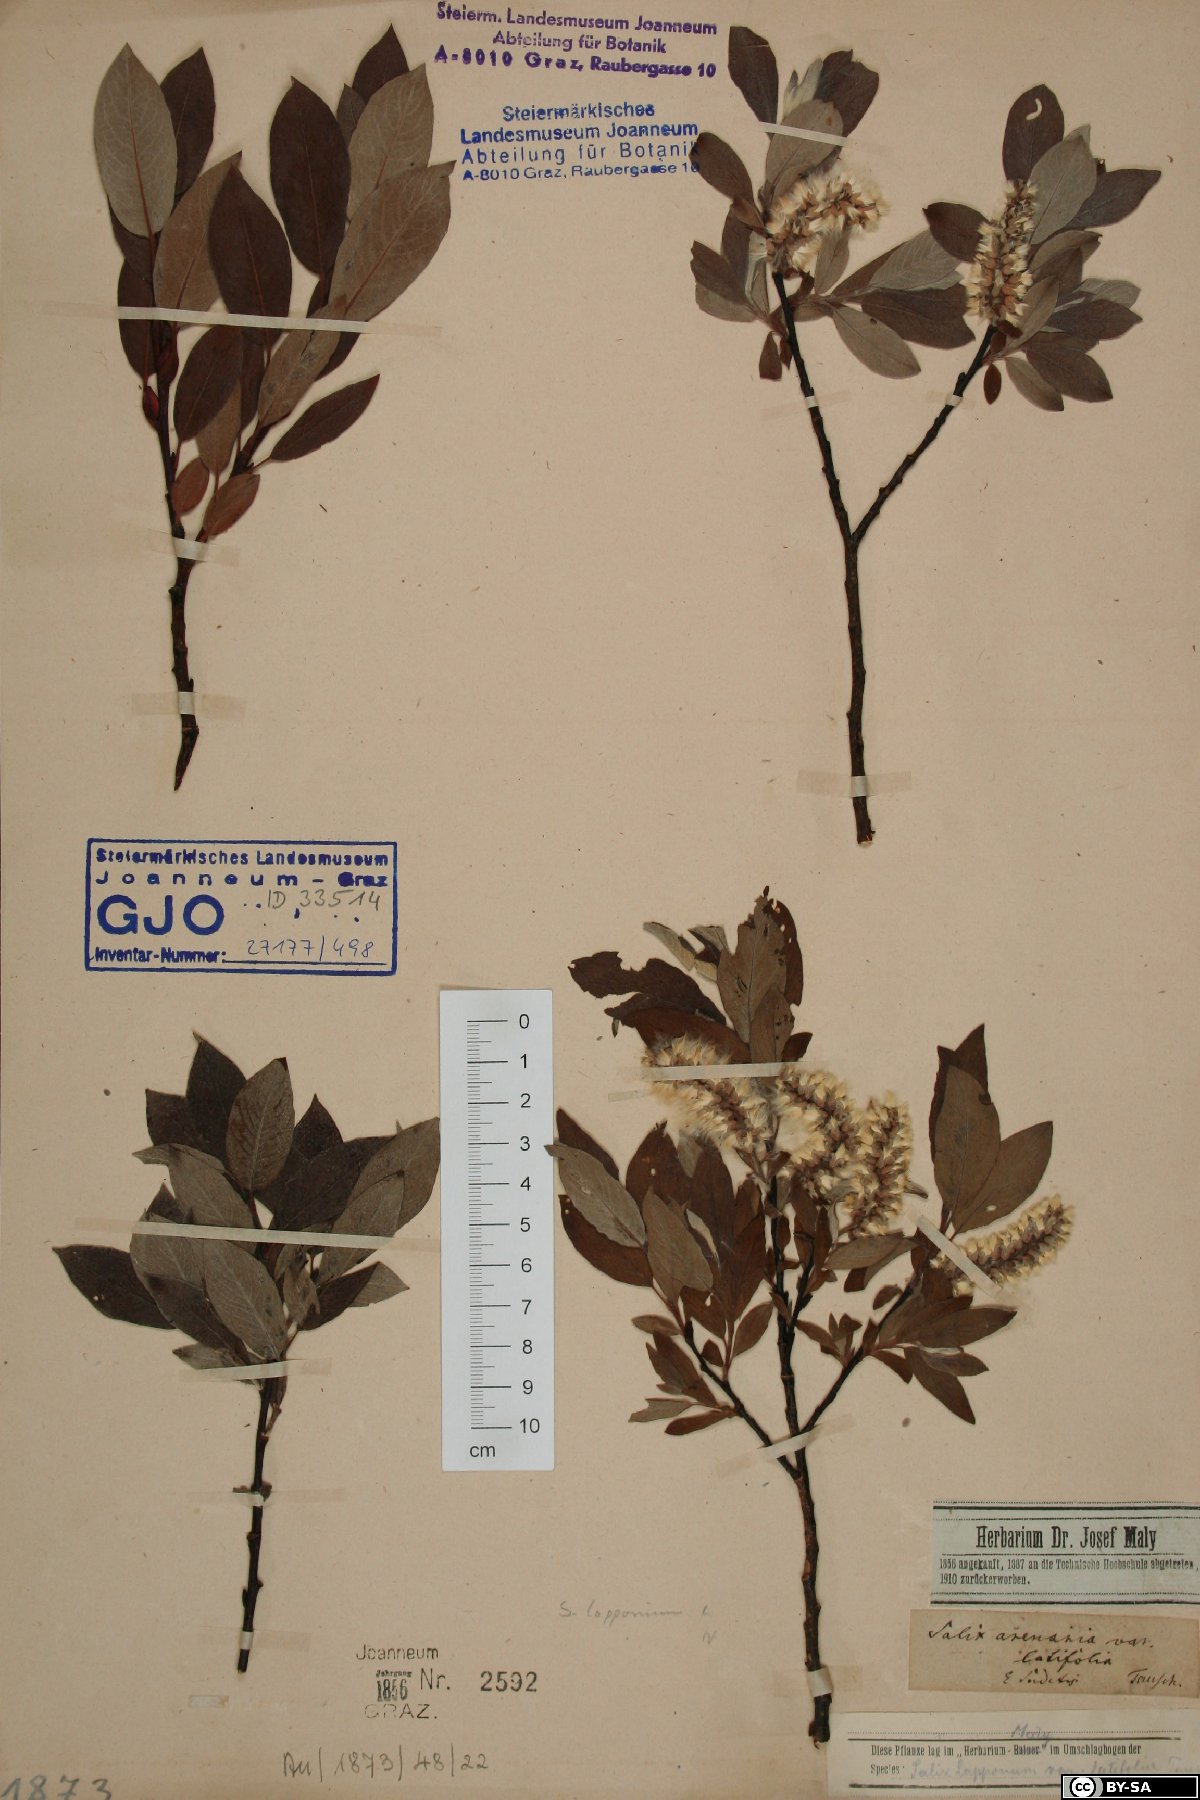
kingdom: Plantae
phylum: Tracheophyta
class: Magnoliopsida
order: Malpighiales
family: Salicaceae
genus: Salix
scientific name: Salix lapponum
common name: Downy willow
